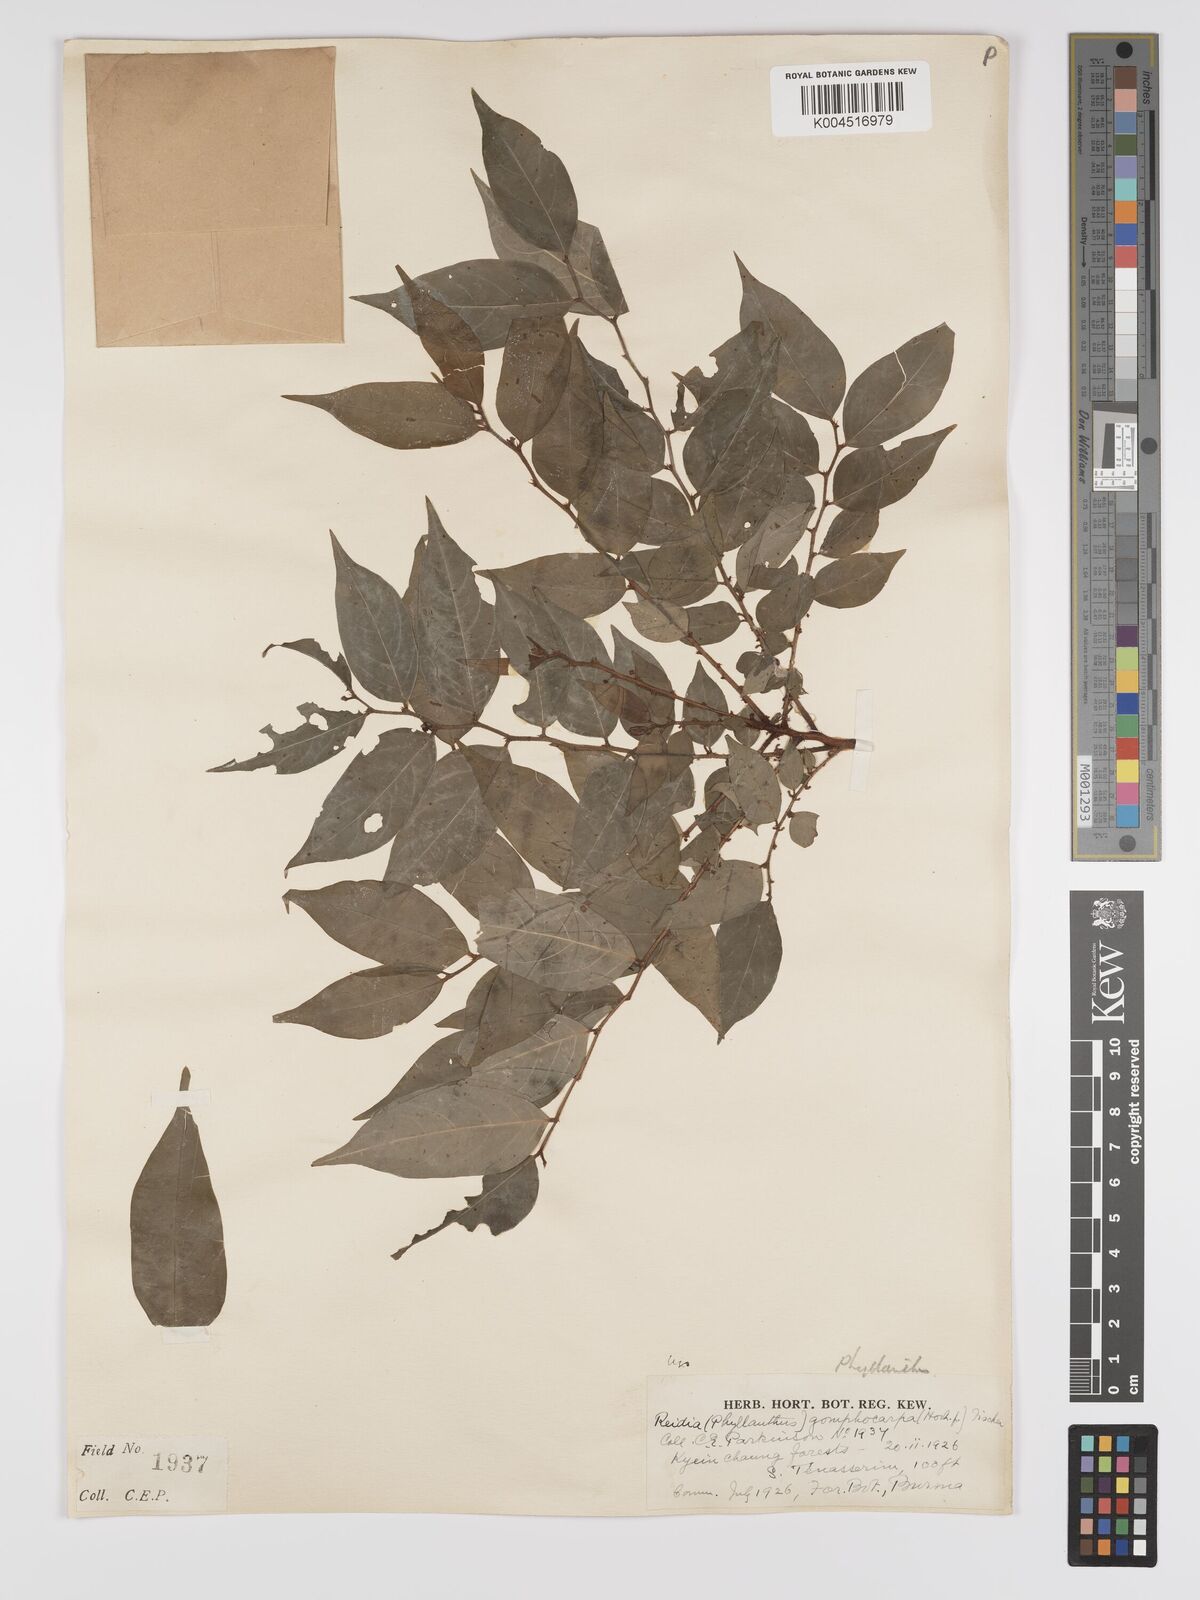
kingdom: Plantae
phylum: Tracheophyta
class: Magnoliopsida
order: Malpighiales
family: Phyllanthaceae
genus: Phyllanthus
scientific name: Phyllanthus
